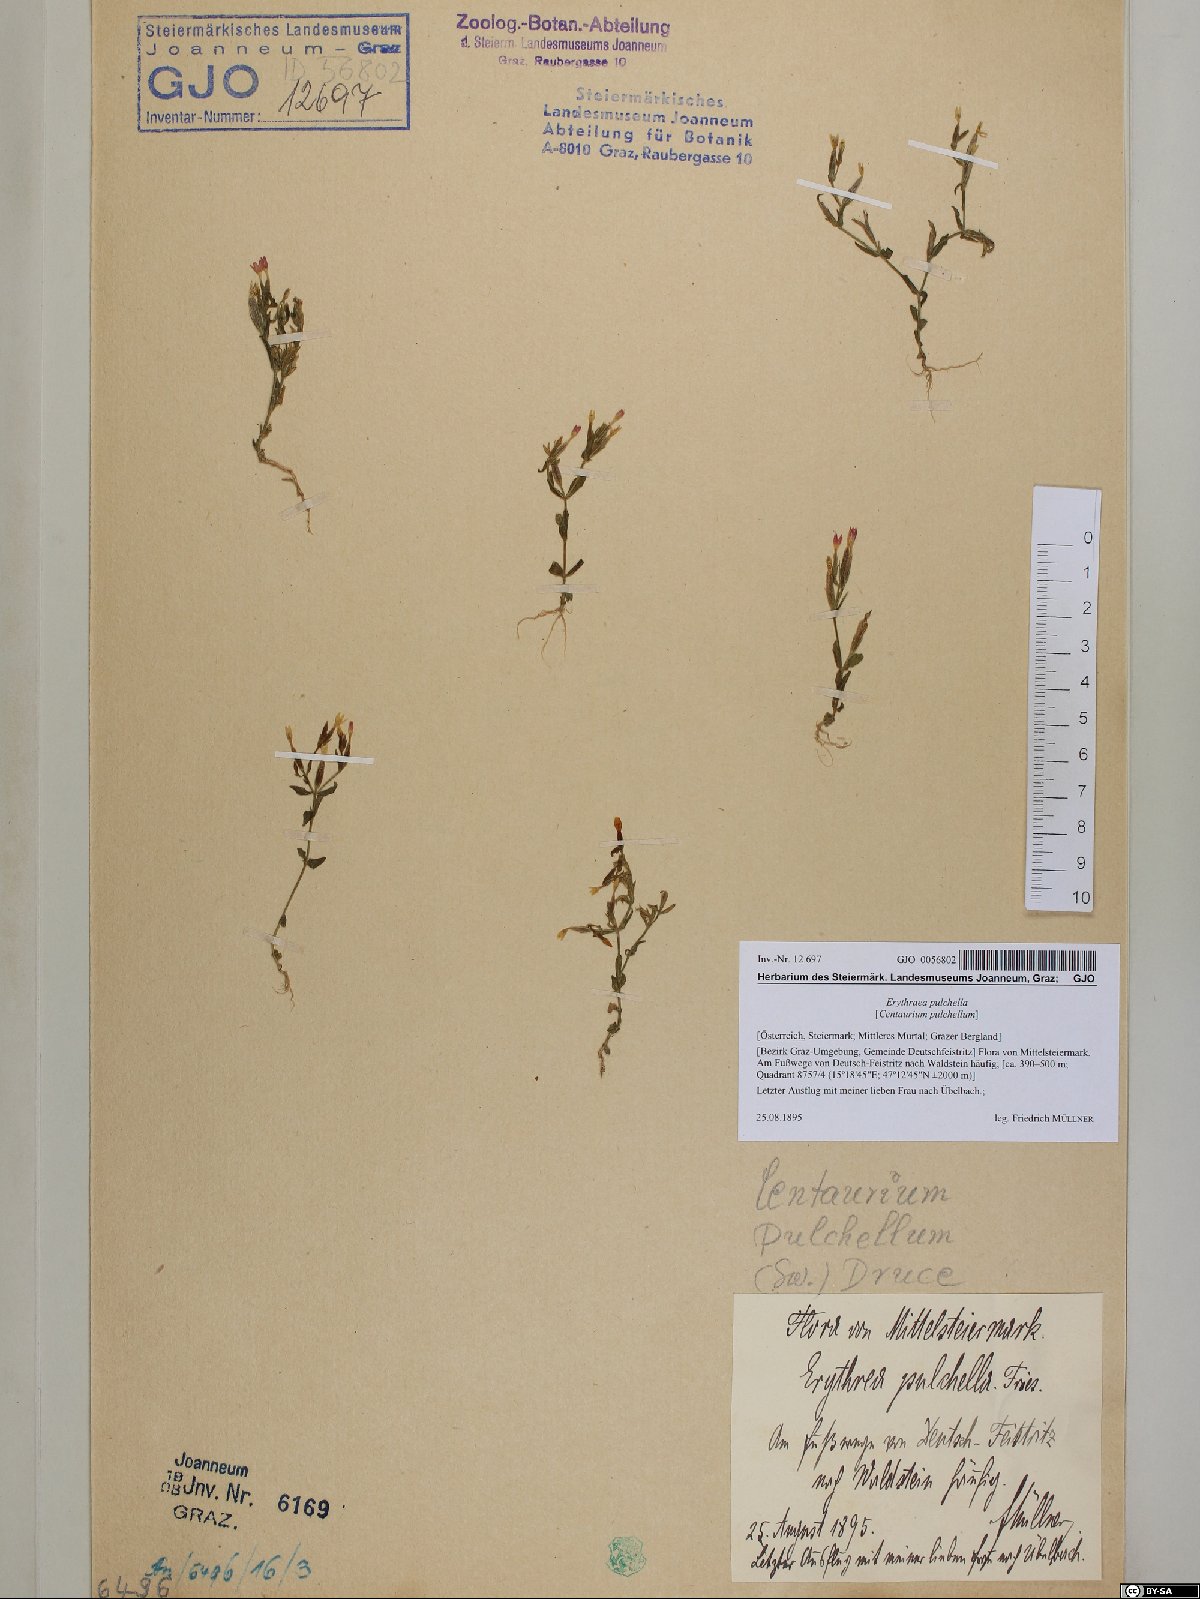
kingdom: Plantae
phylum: Tracheophyta
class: Magnoliopsida
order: Gentianales
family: Gentianaceae
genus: Centaurium
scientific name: Centaurium pulchellum
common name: Lesser centaury
